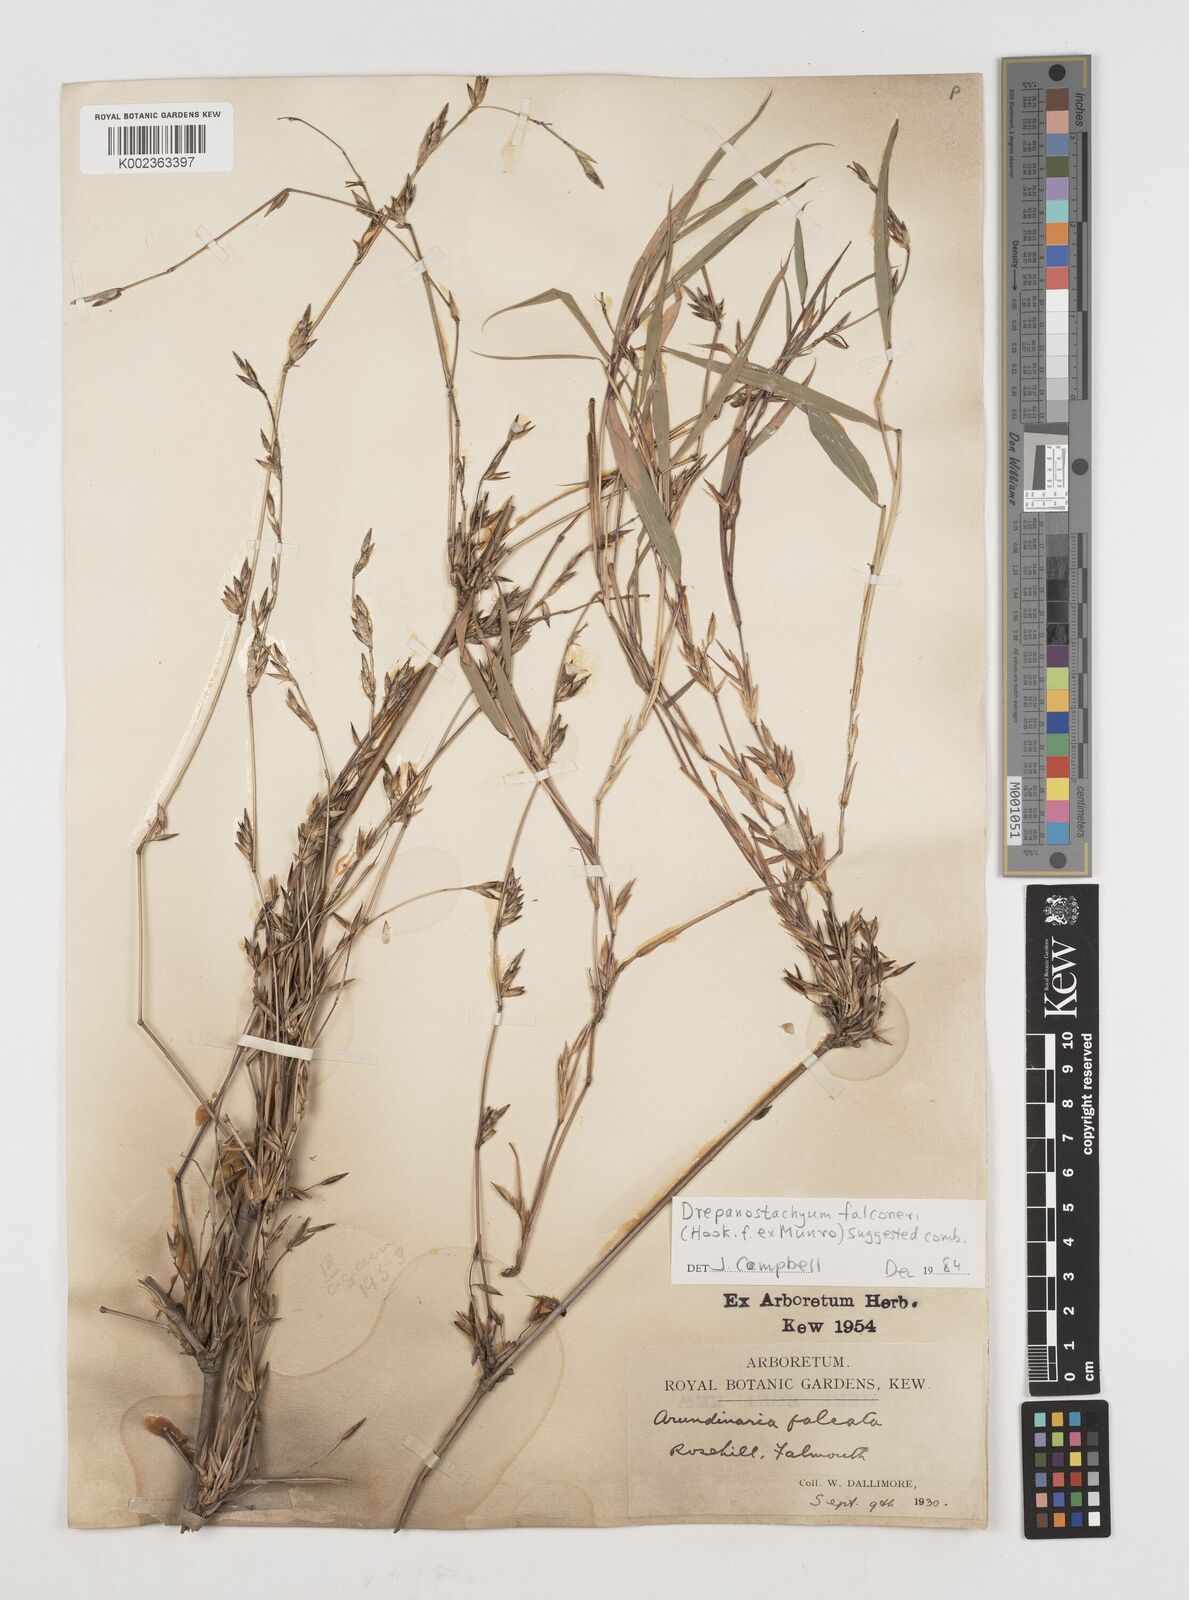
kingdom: Plantae
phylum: Tracheophyta
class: Liliopsida
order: Poales
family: Poaceae
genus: Himalayacalamus
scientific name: Himalayacalamus falconeri
